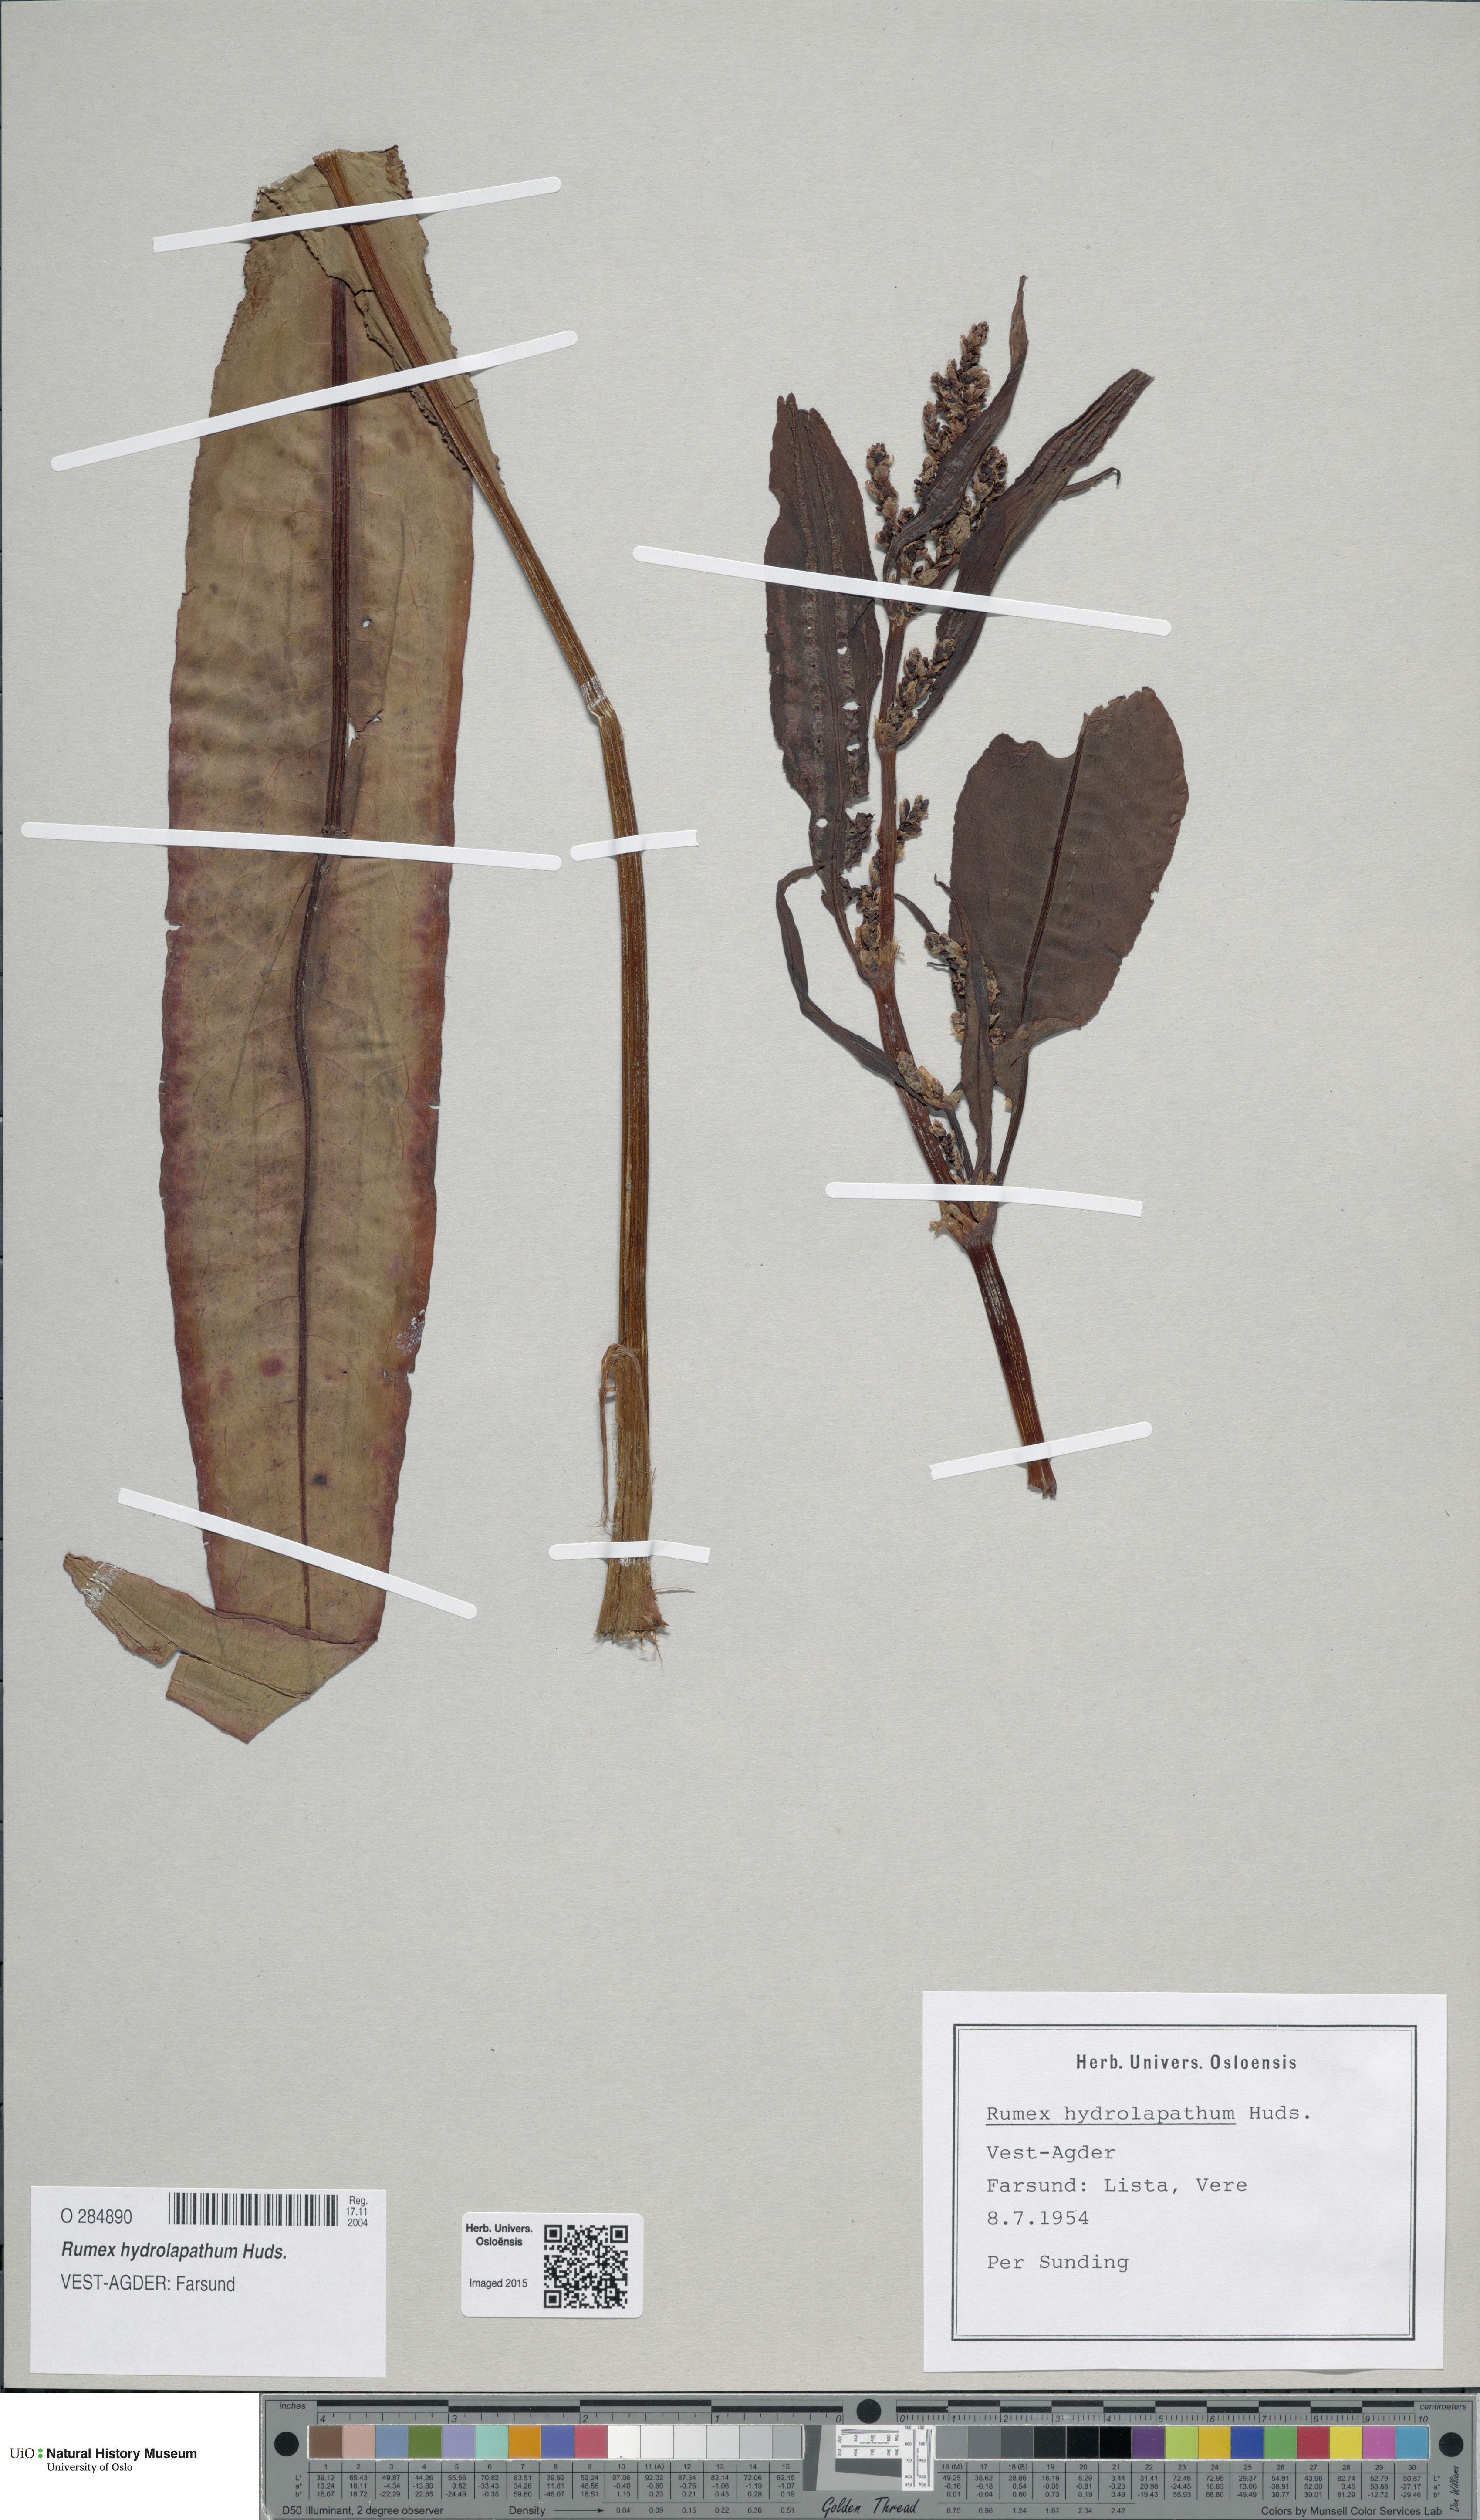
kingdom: Plantae
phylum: Tracheophyta
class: Magnoliopsida
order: Caryophyllales
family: Polygonaceae
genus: Rumex
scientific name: Rumex hydrolapathum
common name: Water dock
